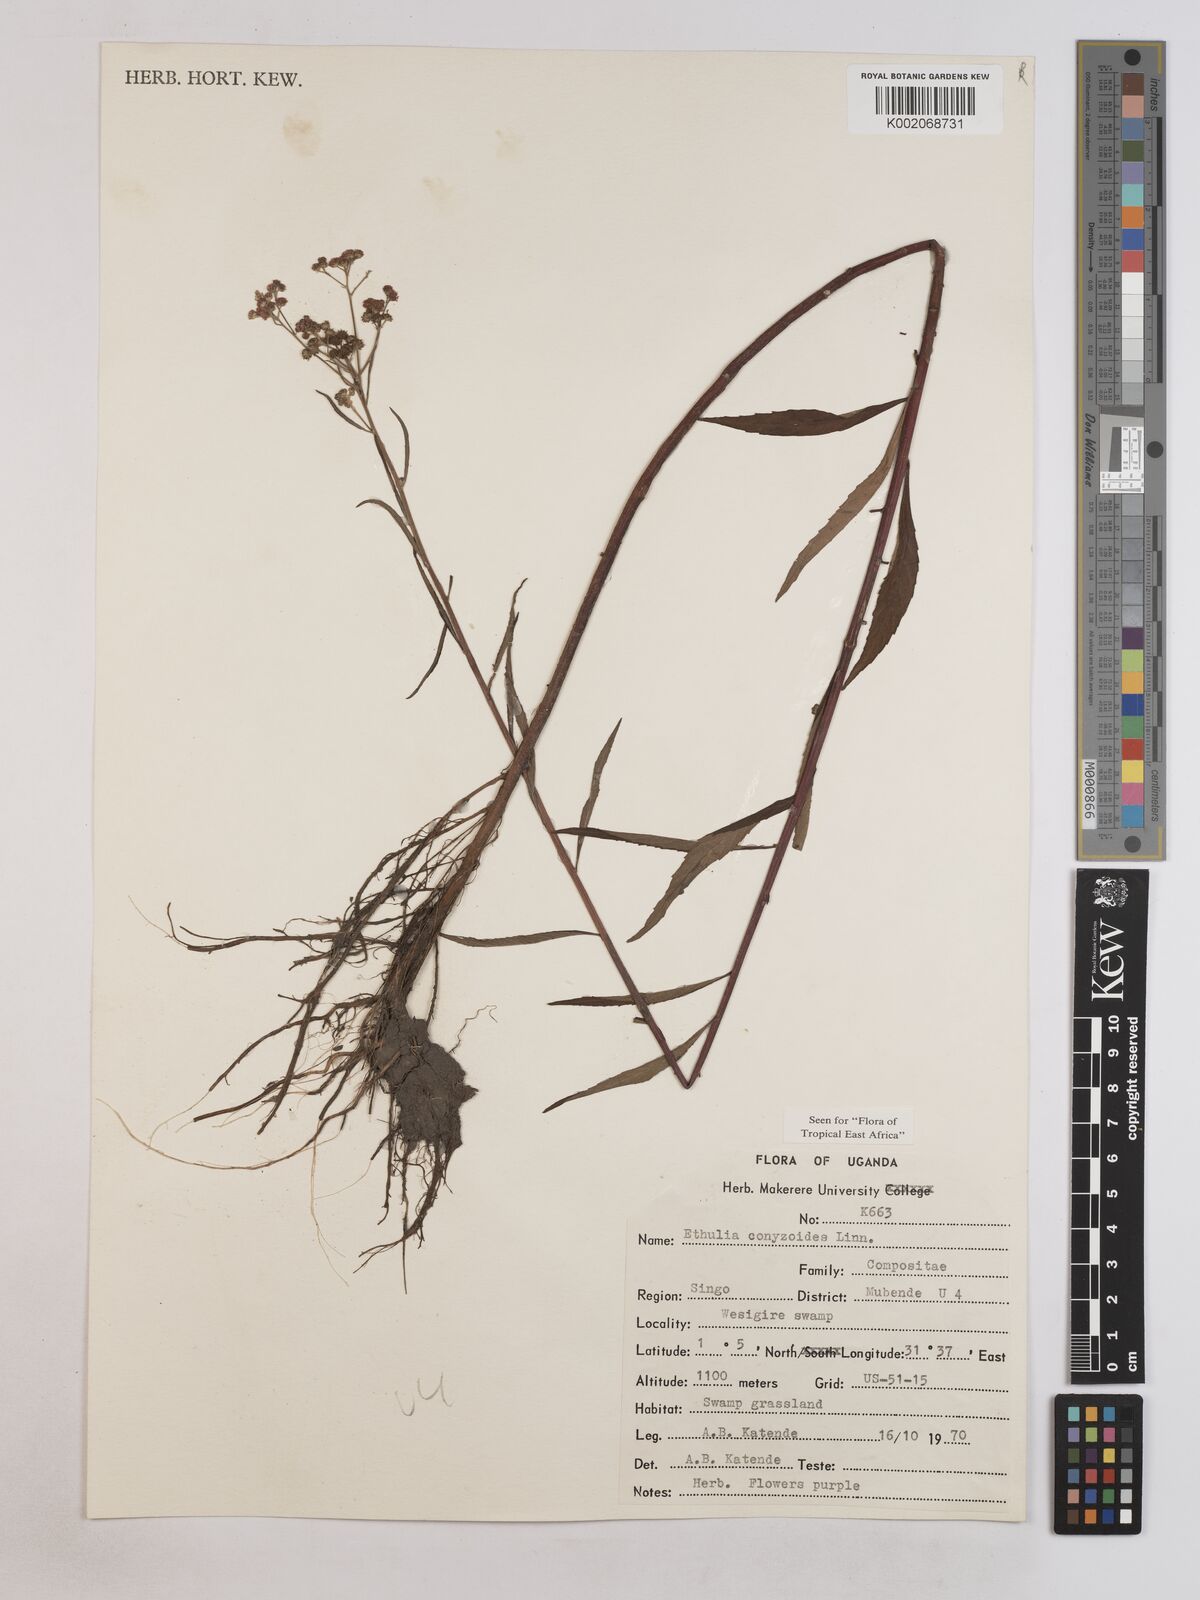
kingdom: Plantae
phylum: Tracheophyta
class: Magnoliopsida
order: Asterales
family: Asteraceae
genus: Ethulia
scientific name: Ethulia conyzoides
